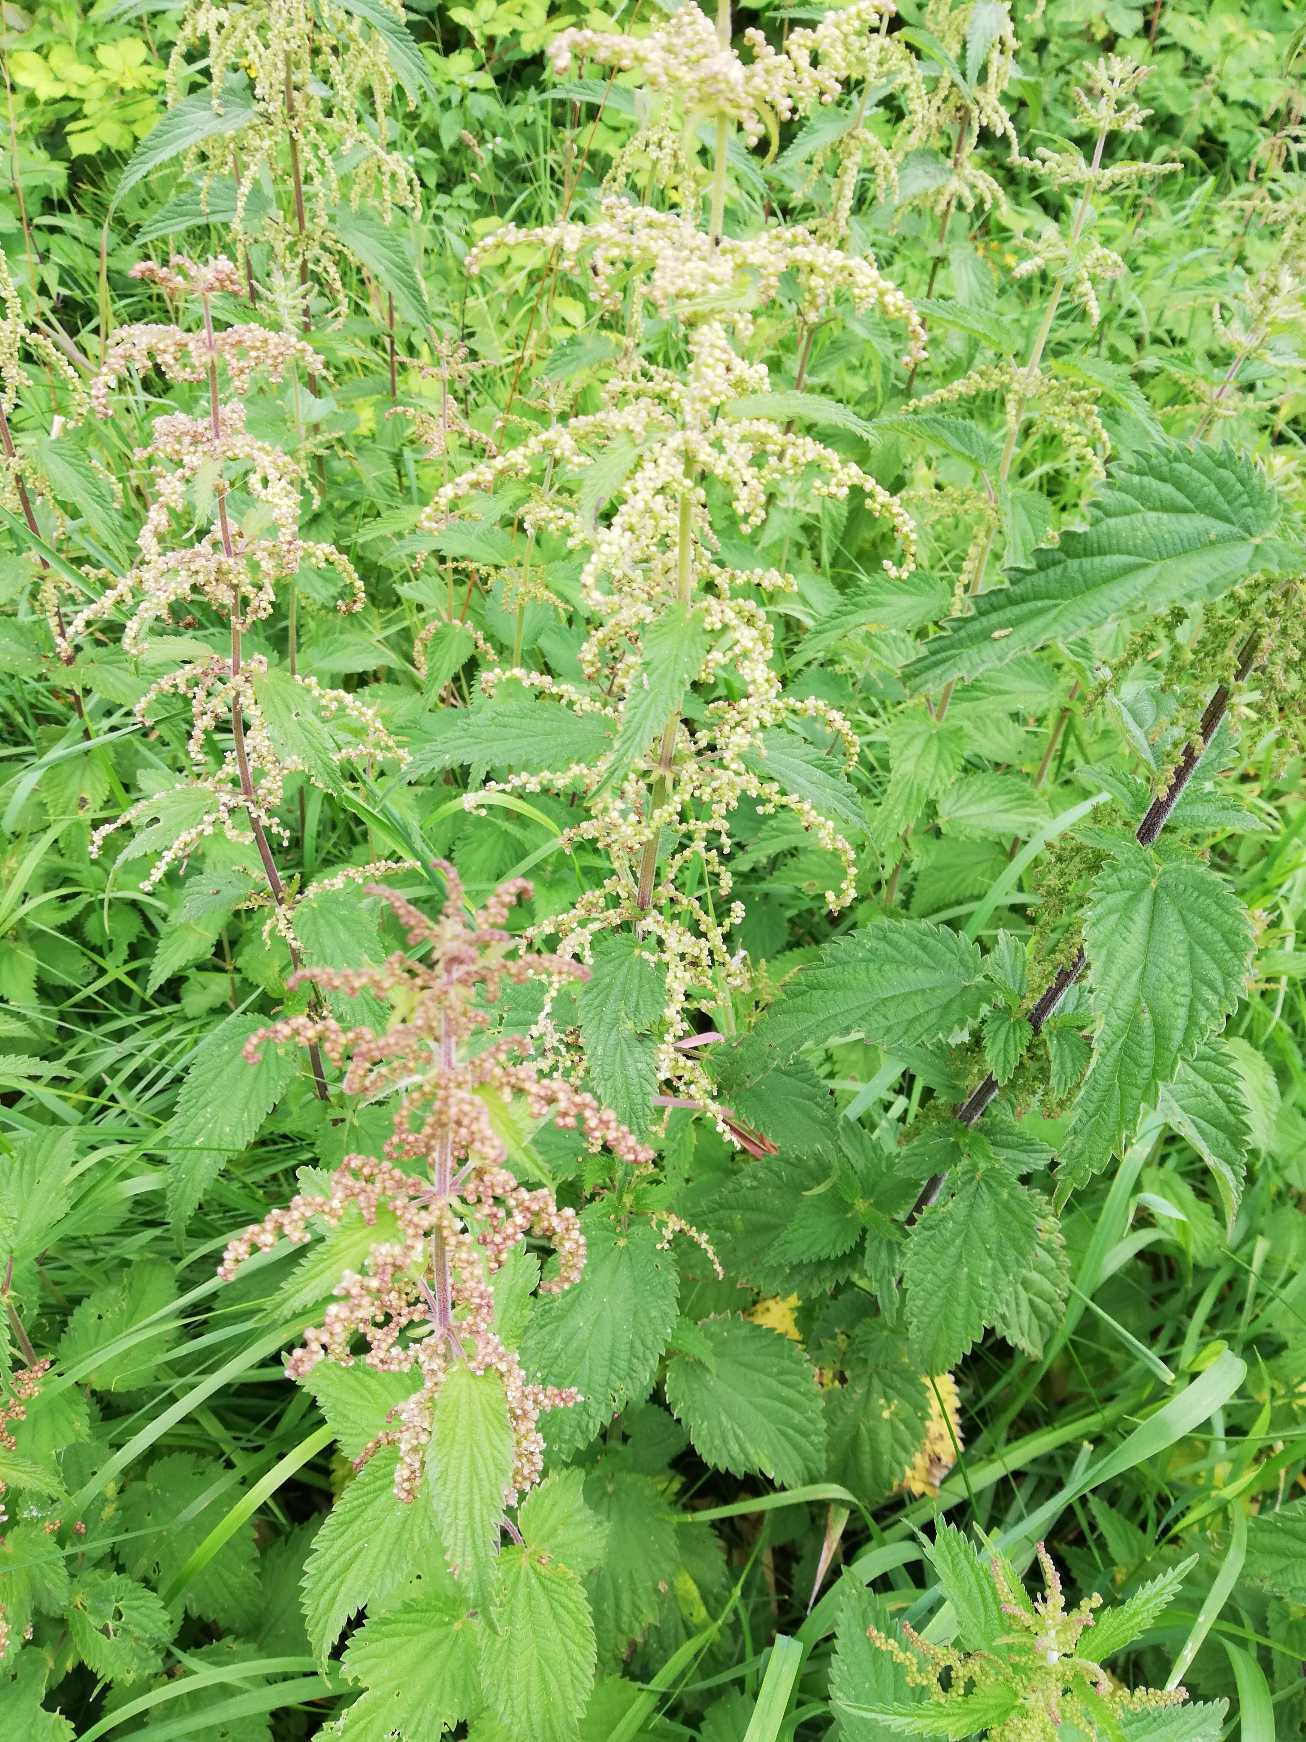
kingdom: Plantae
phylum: Tracheophyta
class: Magnoliopsida
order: Rosales
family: Urticaceae
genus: Urtica
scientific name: Urtica dioica
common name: Stor nælde
